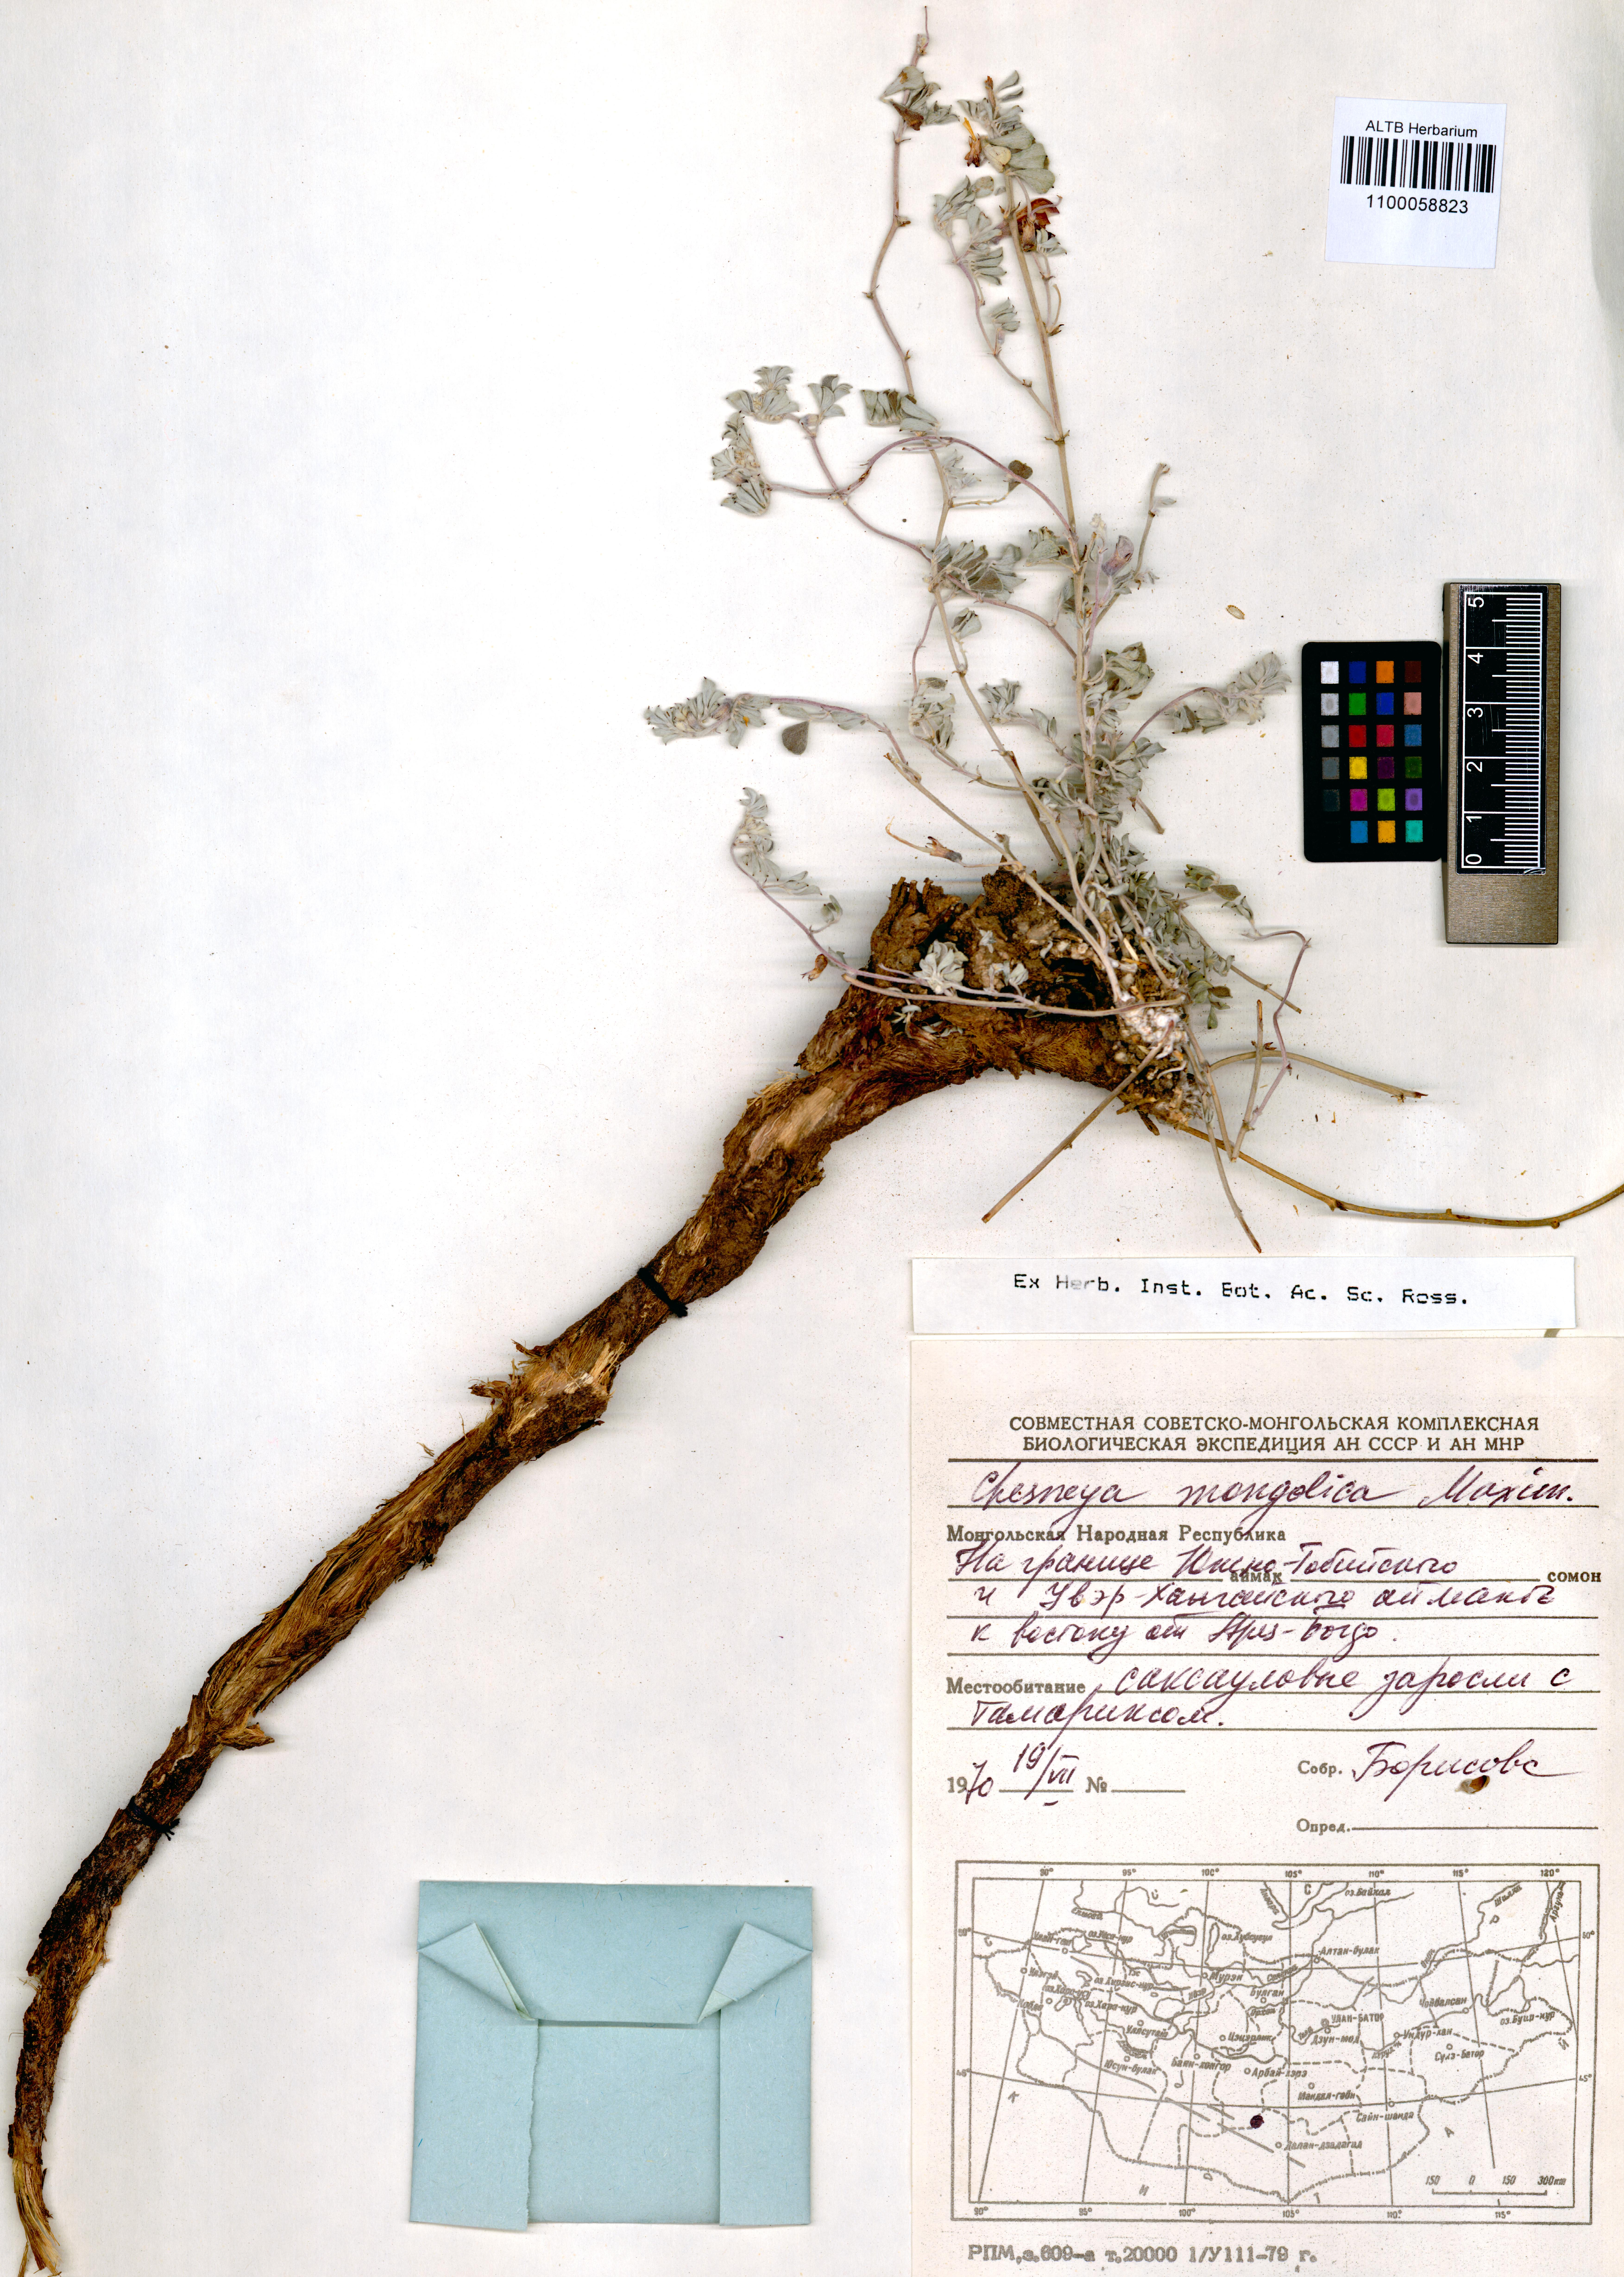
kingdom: Plantae
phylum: Tracheophyta
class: Magnoliopsida
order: Fabales
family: Fabaceae
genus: Chesneya
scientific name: Chesneya mongolica
